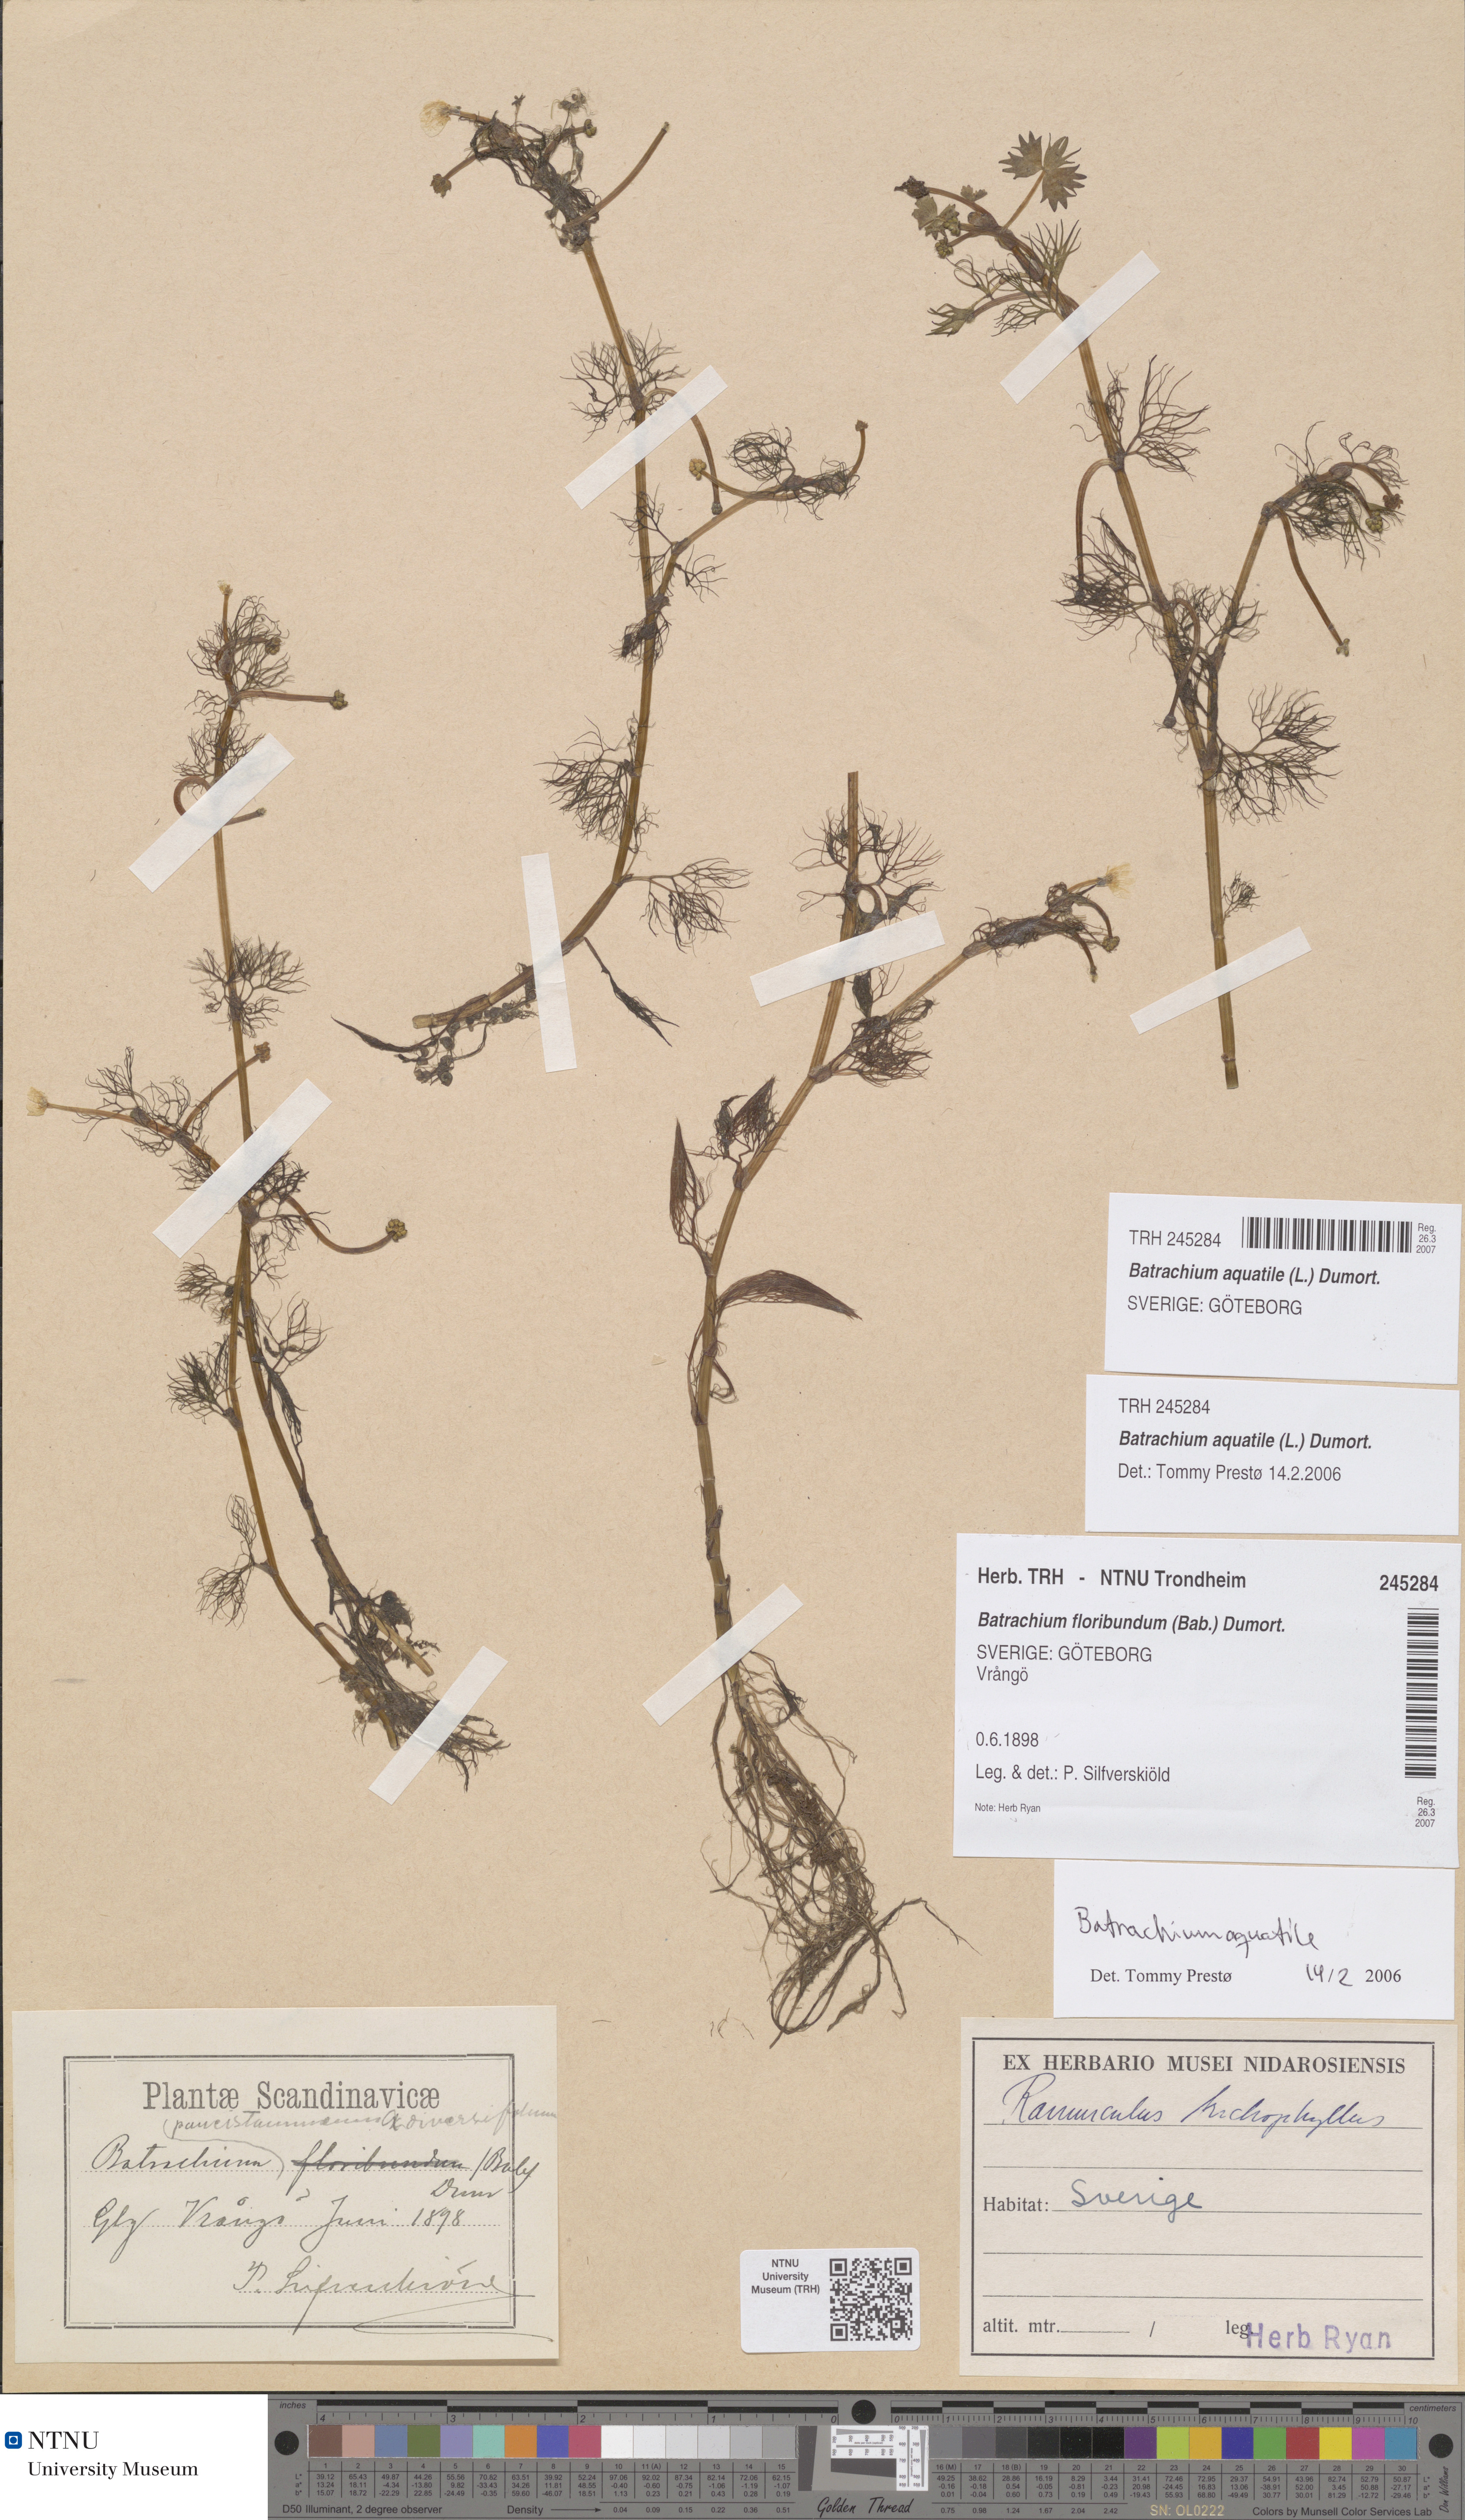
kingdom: Plantae
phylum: Tracheophyta
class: Magnoliopsida
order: Ranunculales
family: Ranunculaceae
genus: Ranunculus
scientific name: Ranunculus aquatilis
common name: Common water-crowfoot
